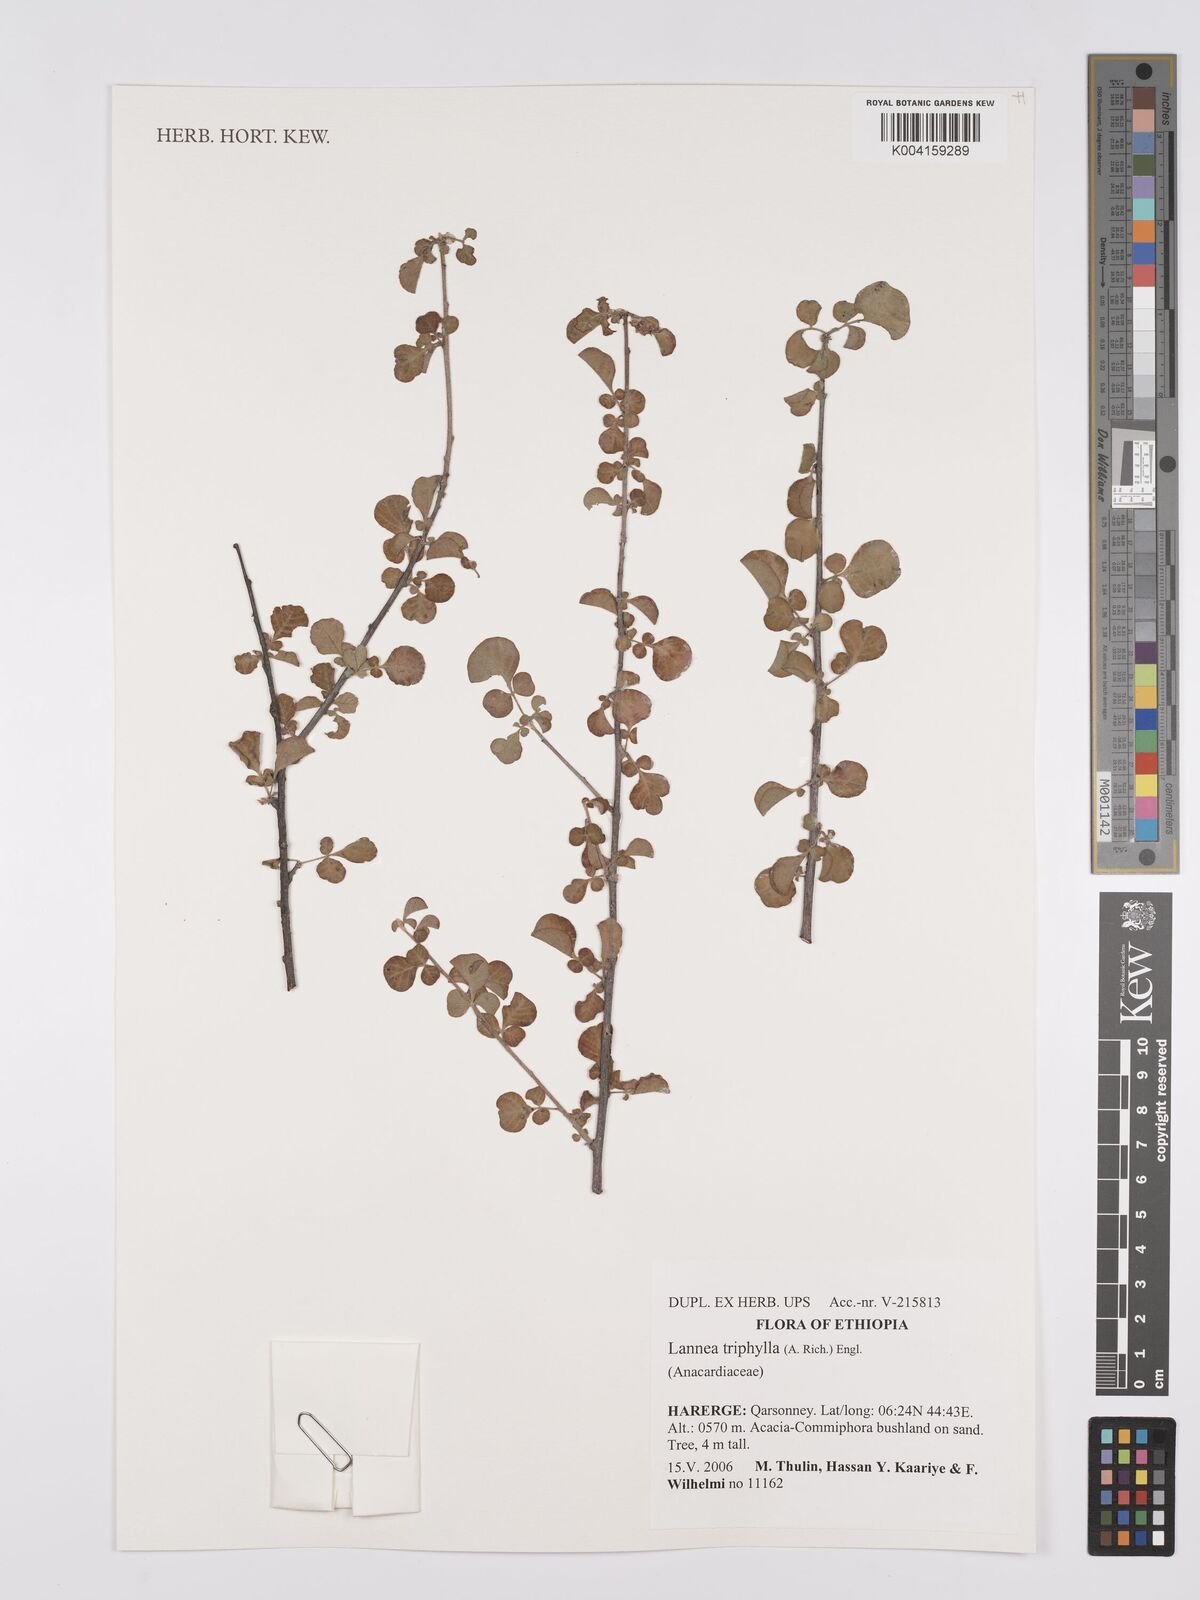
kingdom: Plantae
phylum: Tracheophyta
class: Magnoliopsida
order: Sapindales
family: Anacardiaceae
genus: Lannea
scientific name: Lannea triphylla
